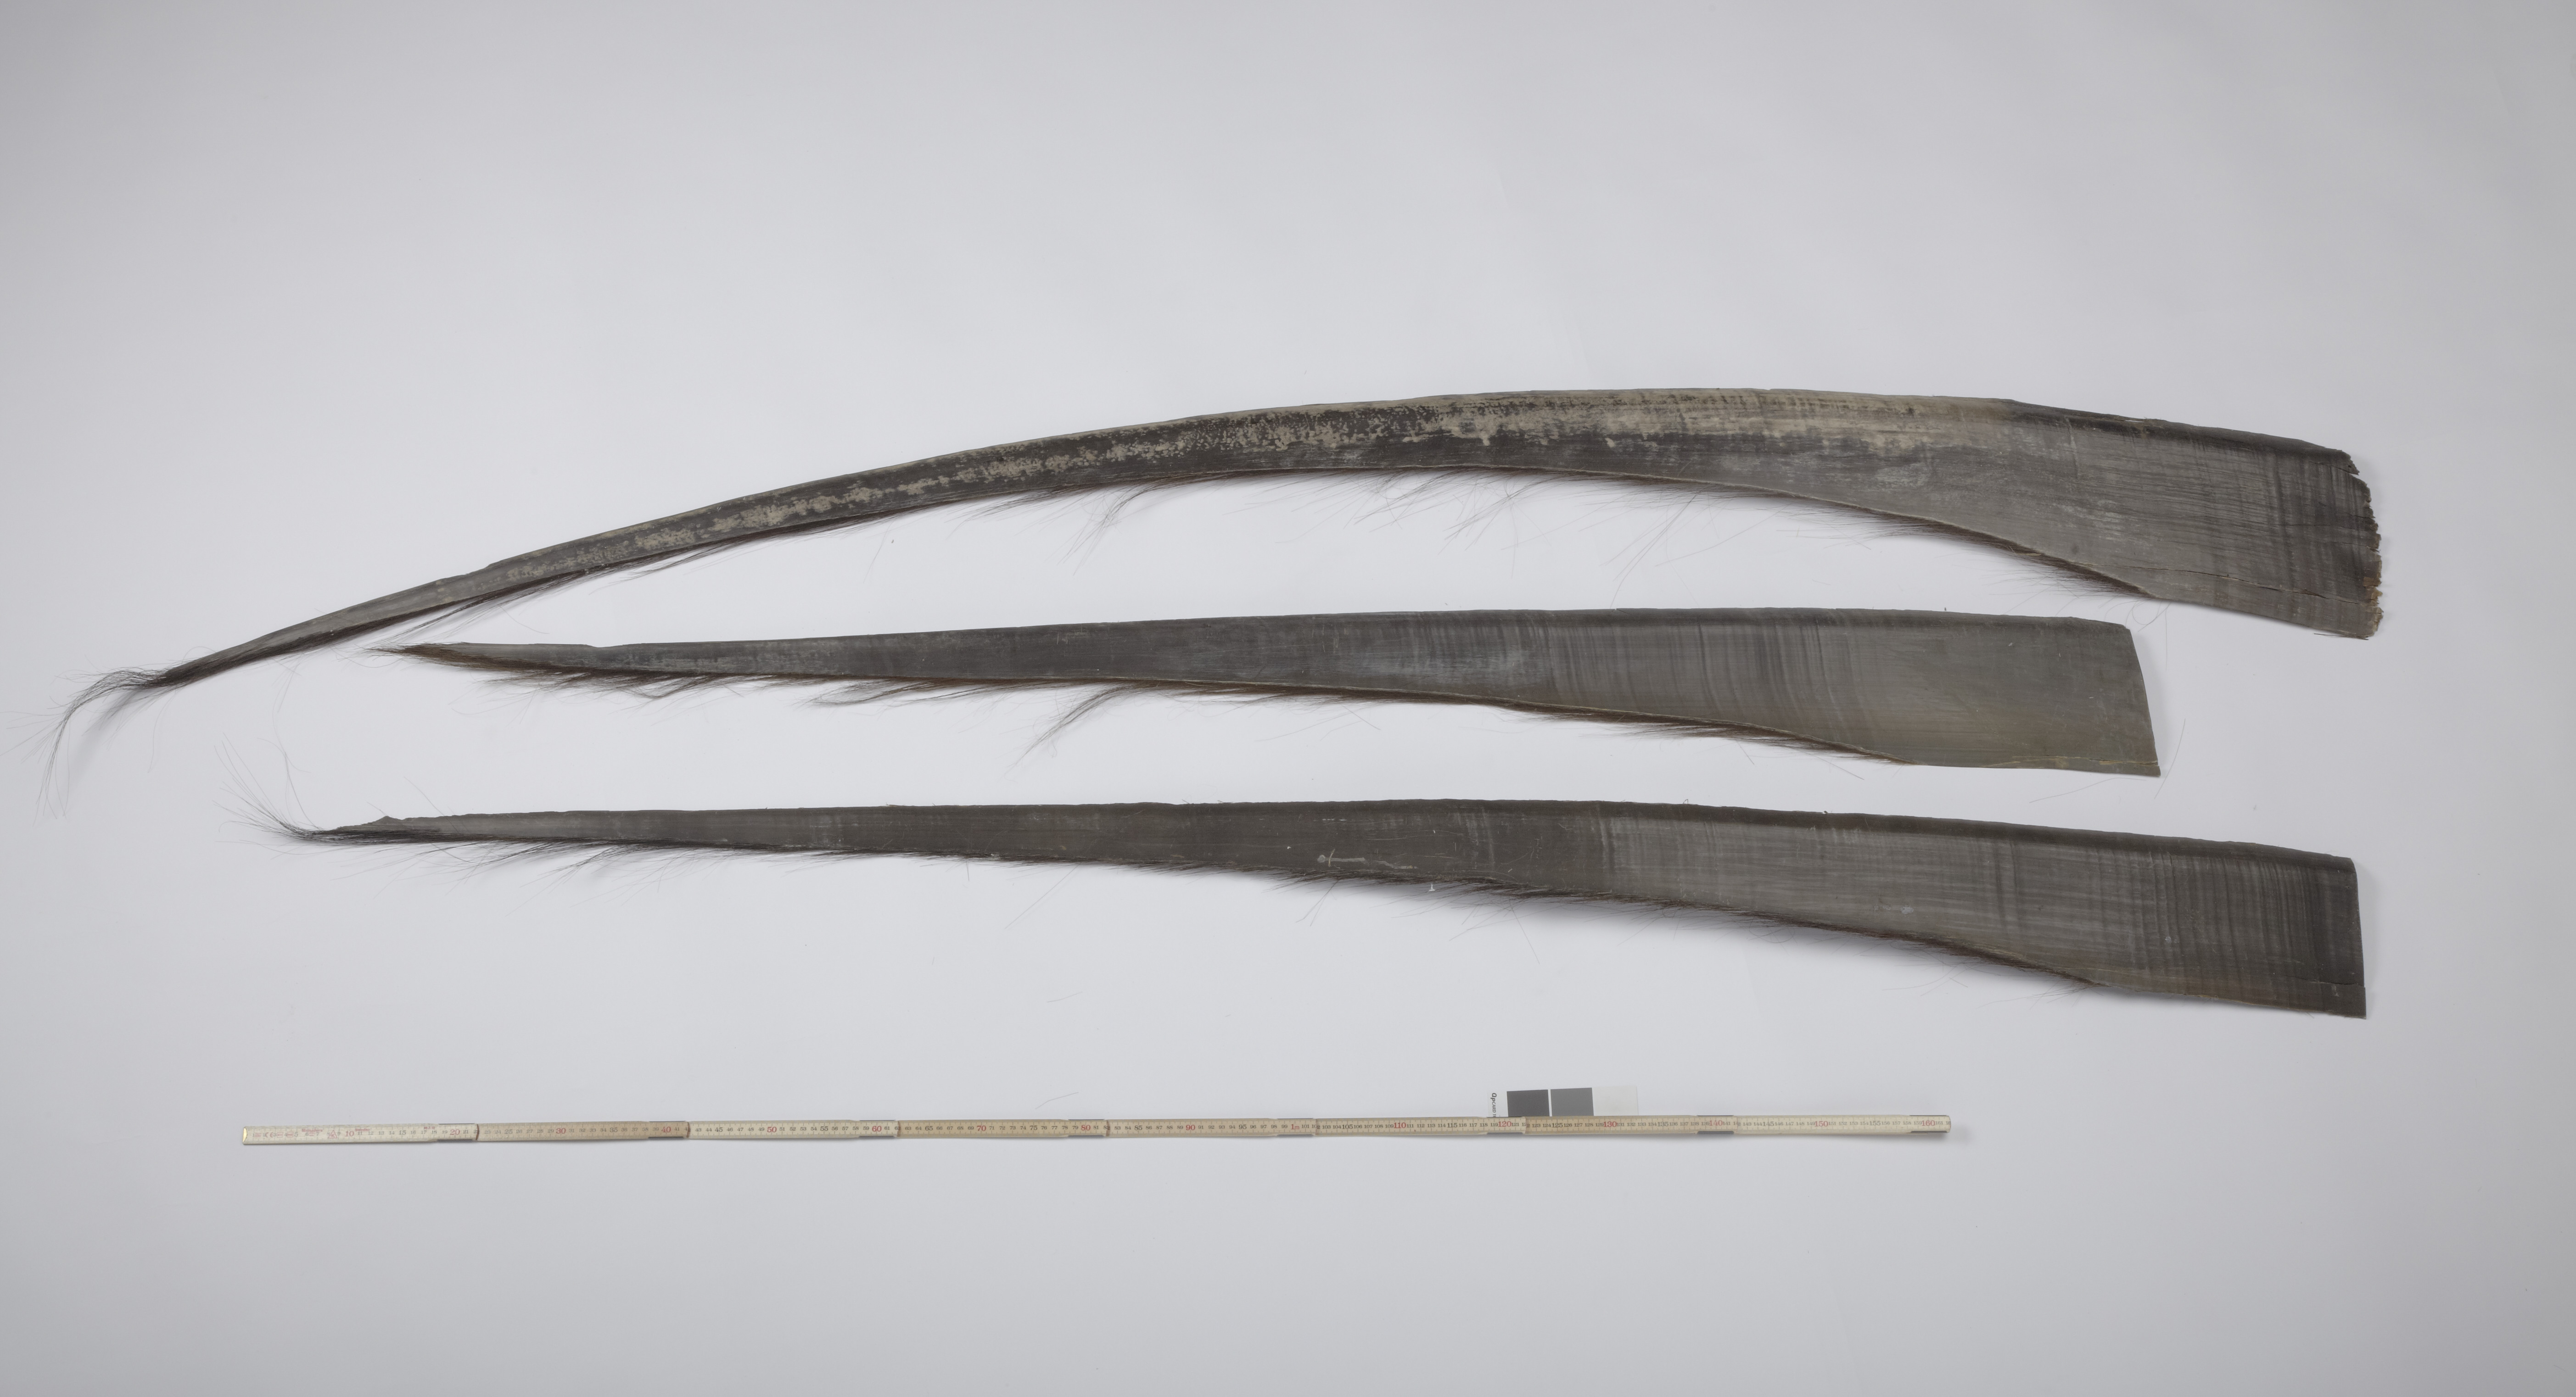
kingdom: Animalia
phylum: Chordata
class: Mammalia
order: Cetacea
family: Balaenidae
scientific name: Balaenidae
